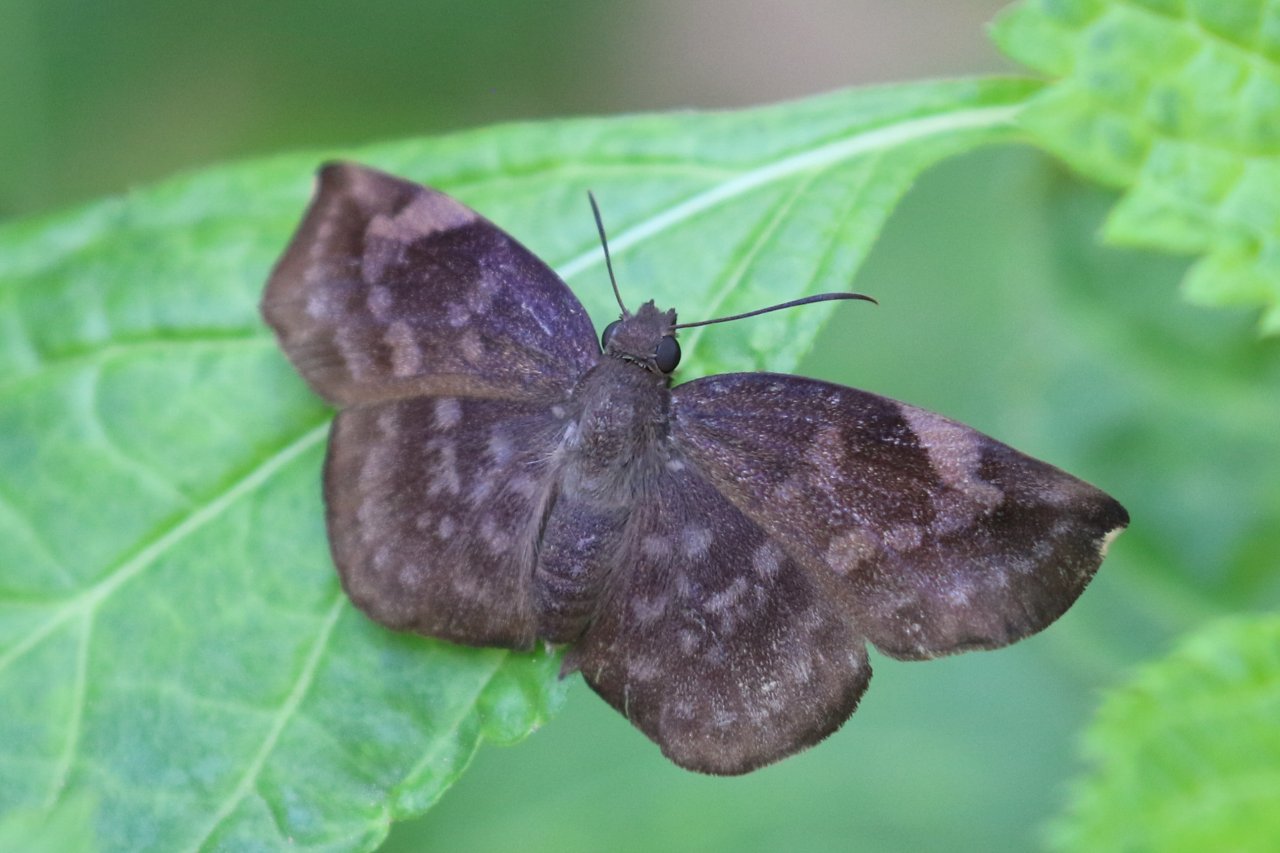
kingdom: Animalia
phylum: Arthropoda
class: Insecta
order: Lepidoptera
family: Hesperiidae
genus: Achlyodes
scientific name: Achlyodes thraso
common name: Sickle-winged Skipper
